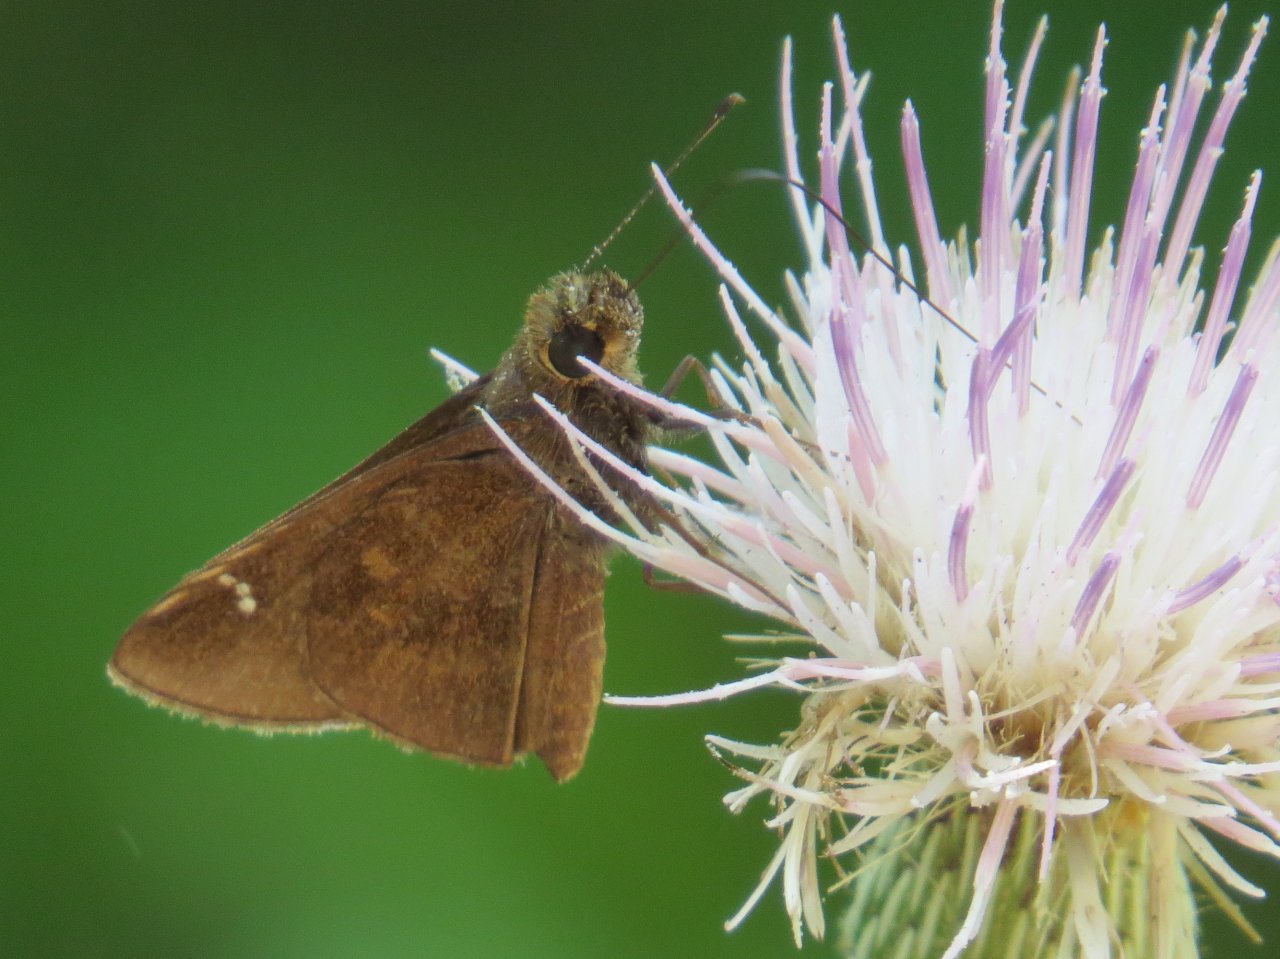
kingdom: Animalia
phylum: Arthropoda
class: Insecta
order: Lepidoptera
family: Hesperiidae
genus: Lerema
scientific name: Lerema accius
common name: Clouded Skipper
